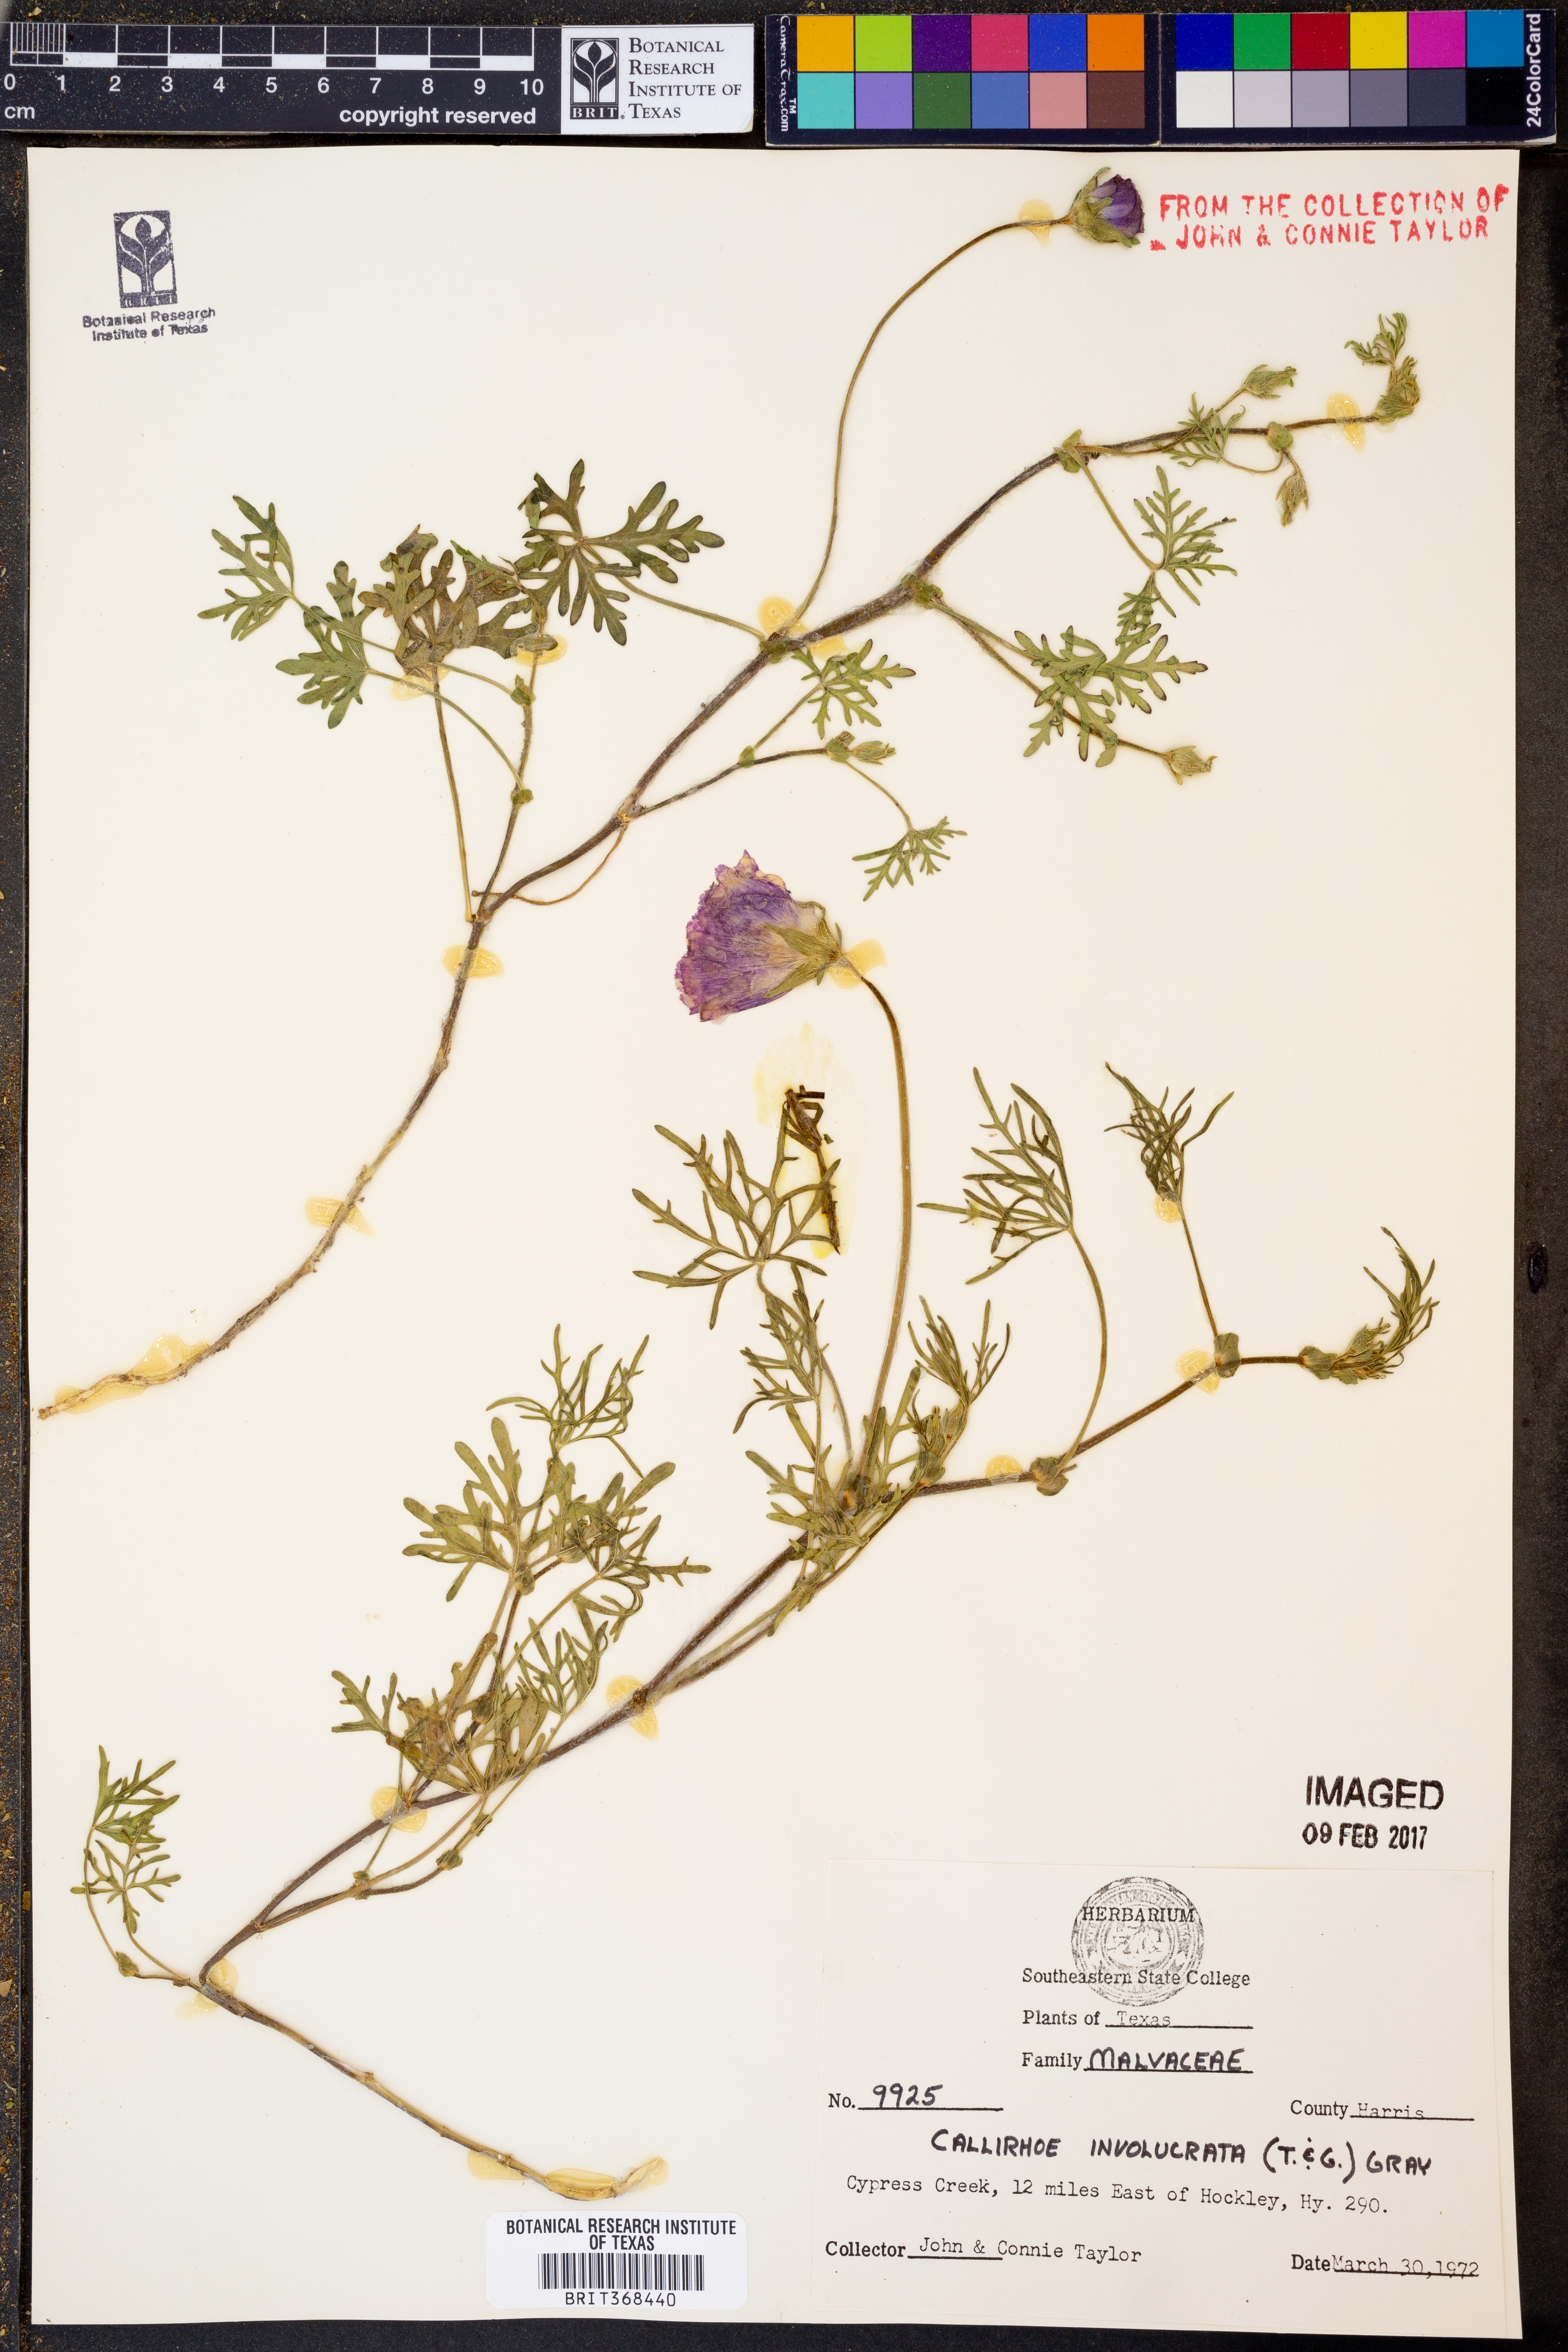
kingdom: Plantae
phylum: Tracheophyta
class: Magnoliopsida
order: Malvales
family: Malvaceae
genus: Callirhoe
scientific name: Callirhoe involucrata
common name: Purple poppy-mallow
